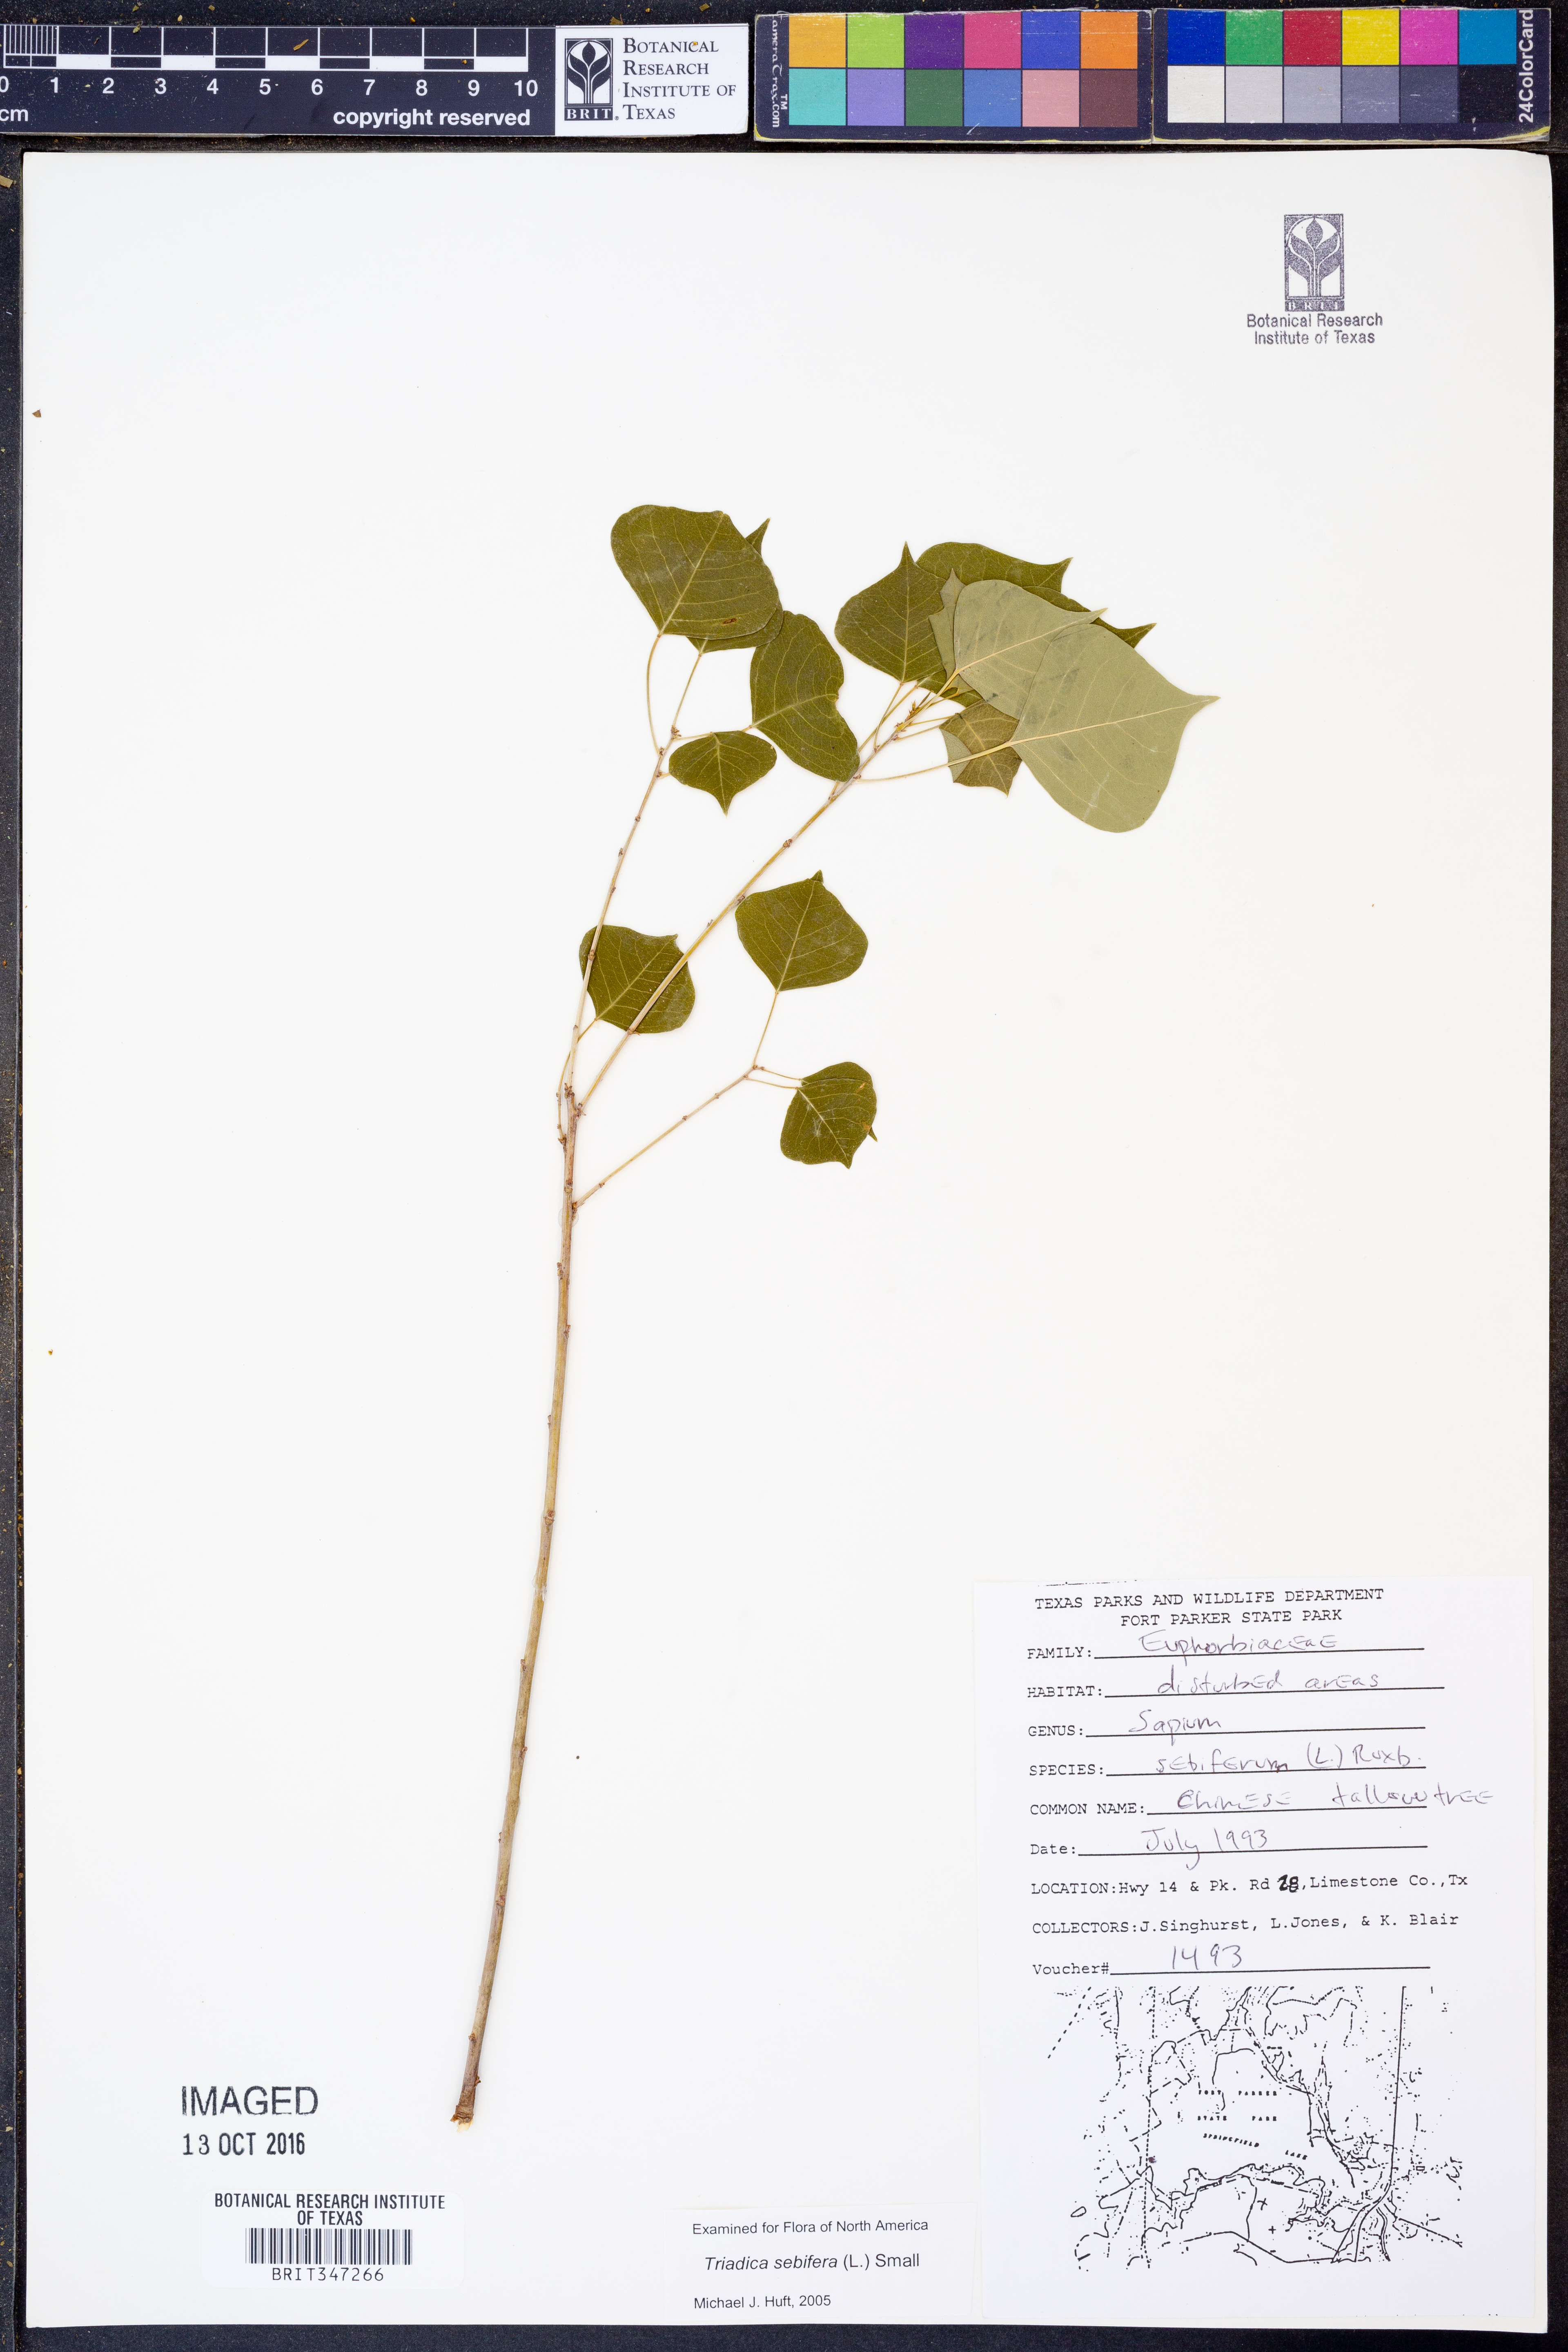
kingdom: Plantae
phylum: Tracheophyta
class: Magnoliopsida
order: Malpighiales
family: Euphorbiaceae
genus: Triadica
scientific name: Triadica sebifera
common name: Chinese tallow
